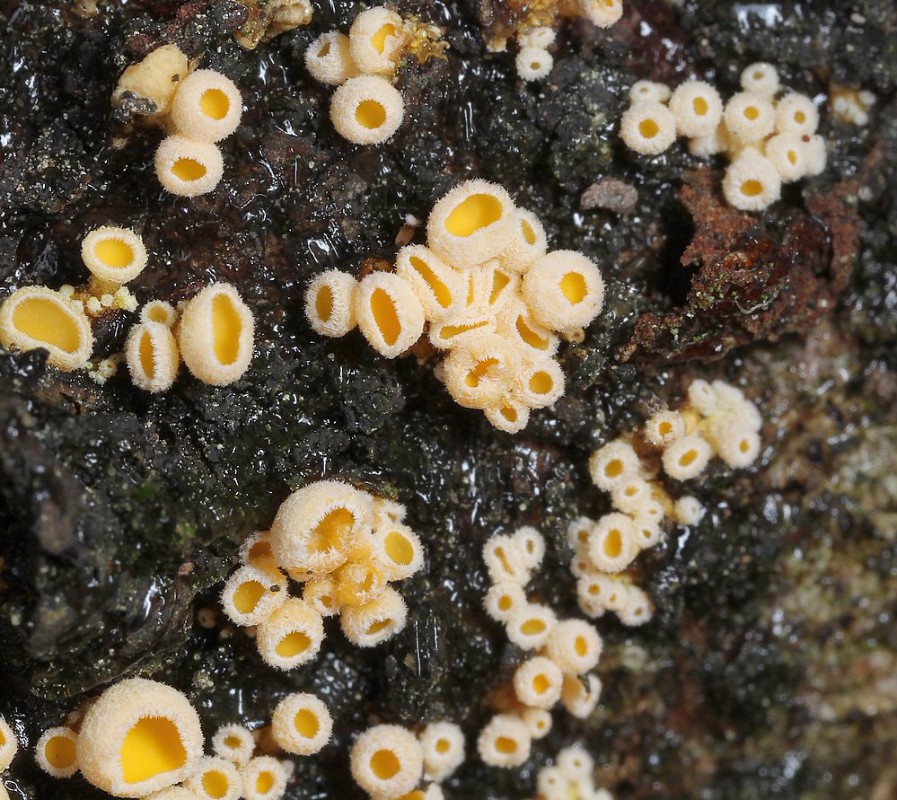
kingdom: Fungi
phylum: Ascomycota
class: Leotiomycetes
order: Helotiales
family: Lachnaceae
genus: Lachnellula
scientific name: Lachnellula calyciformis
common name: ædelgran-frynseskive
